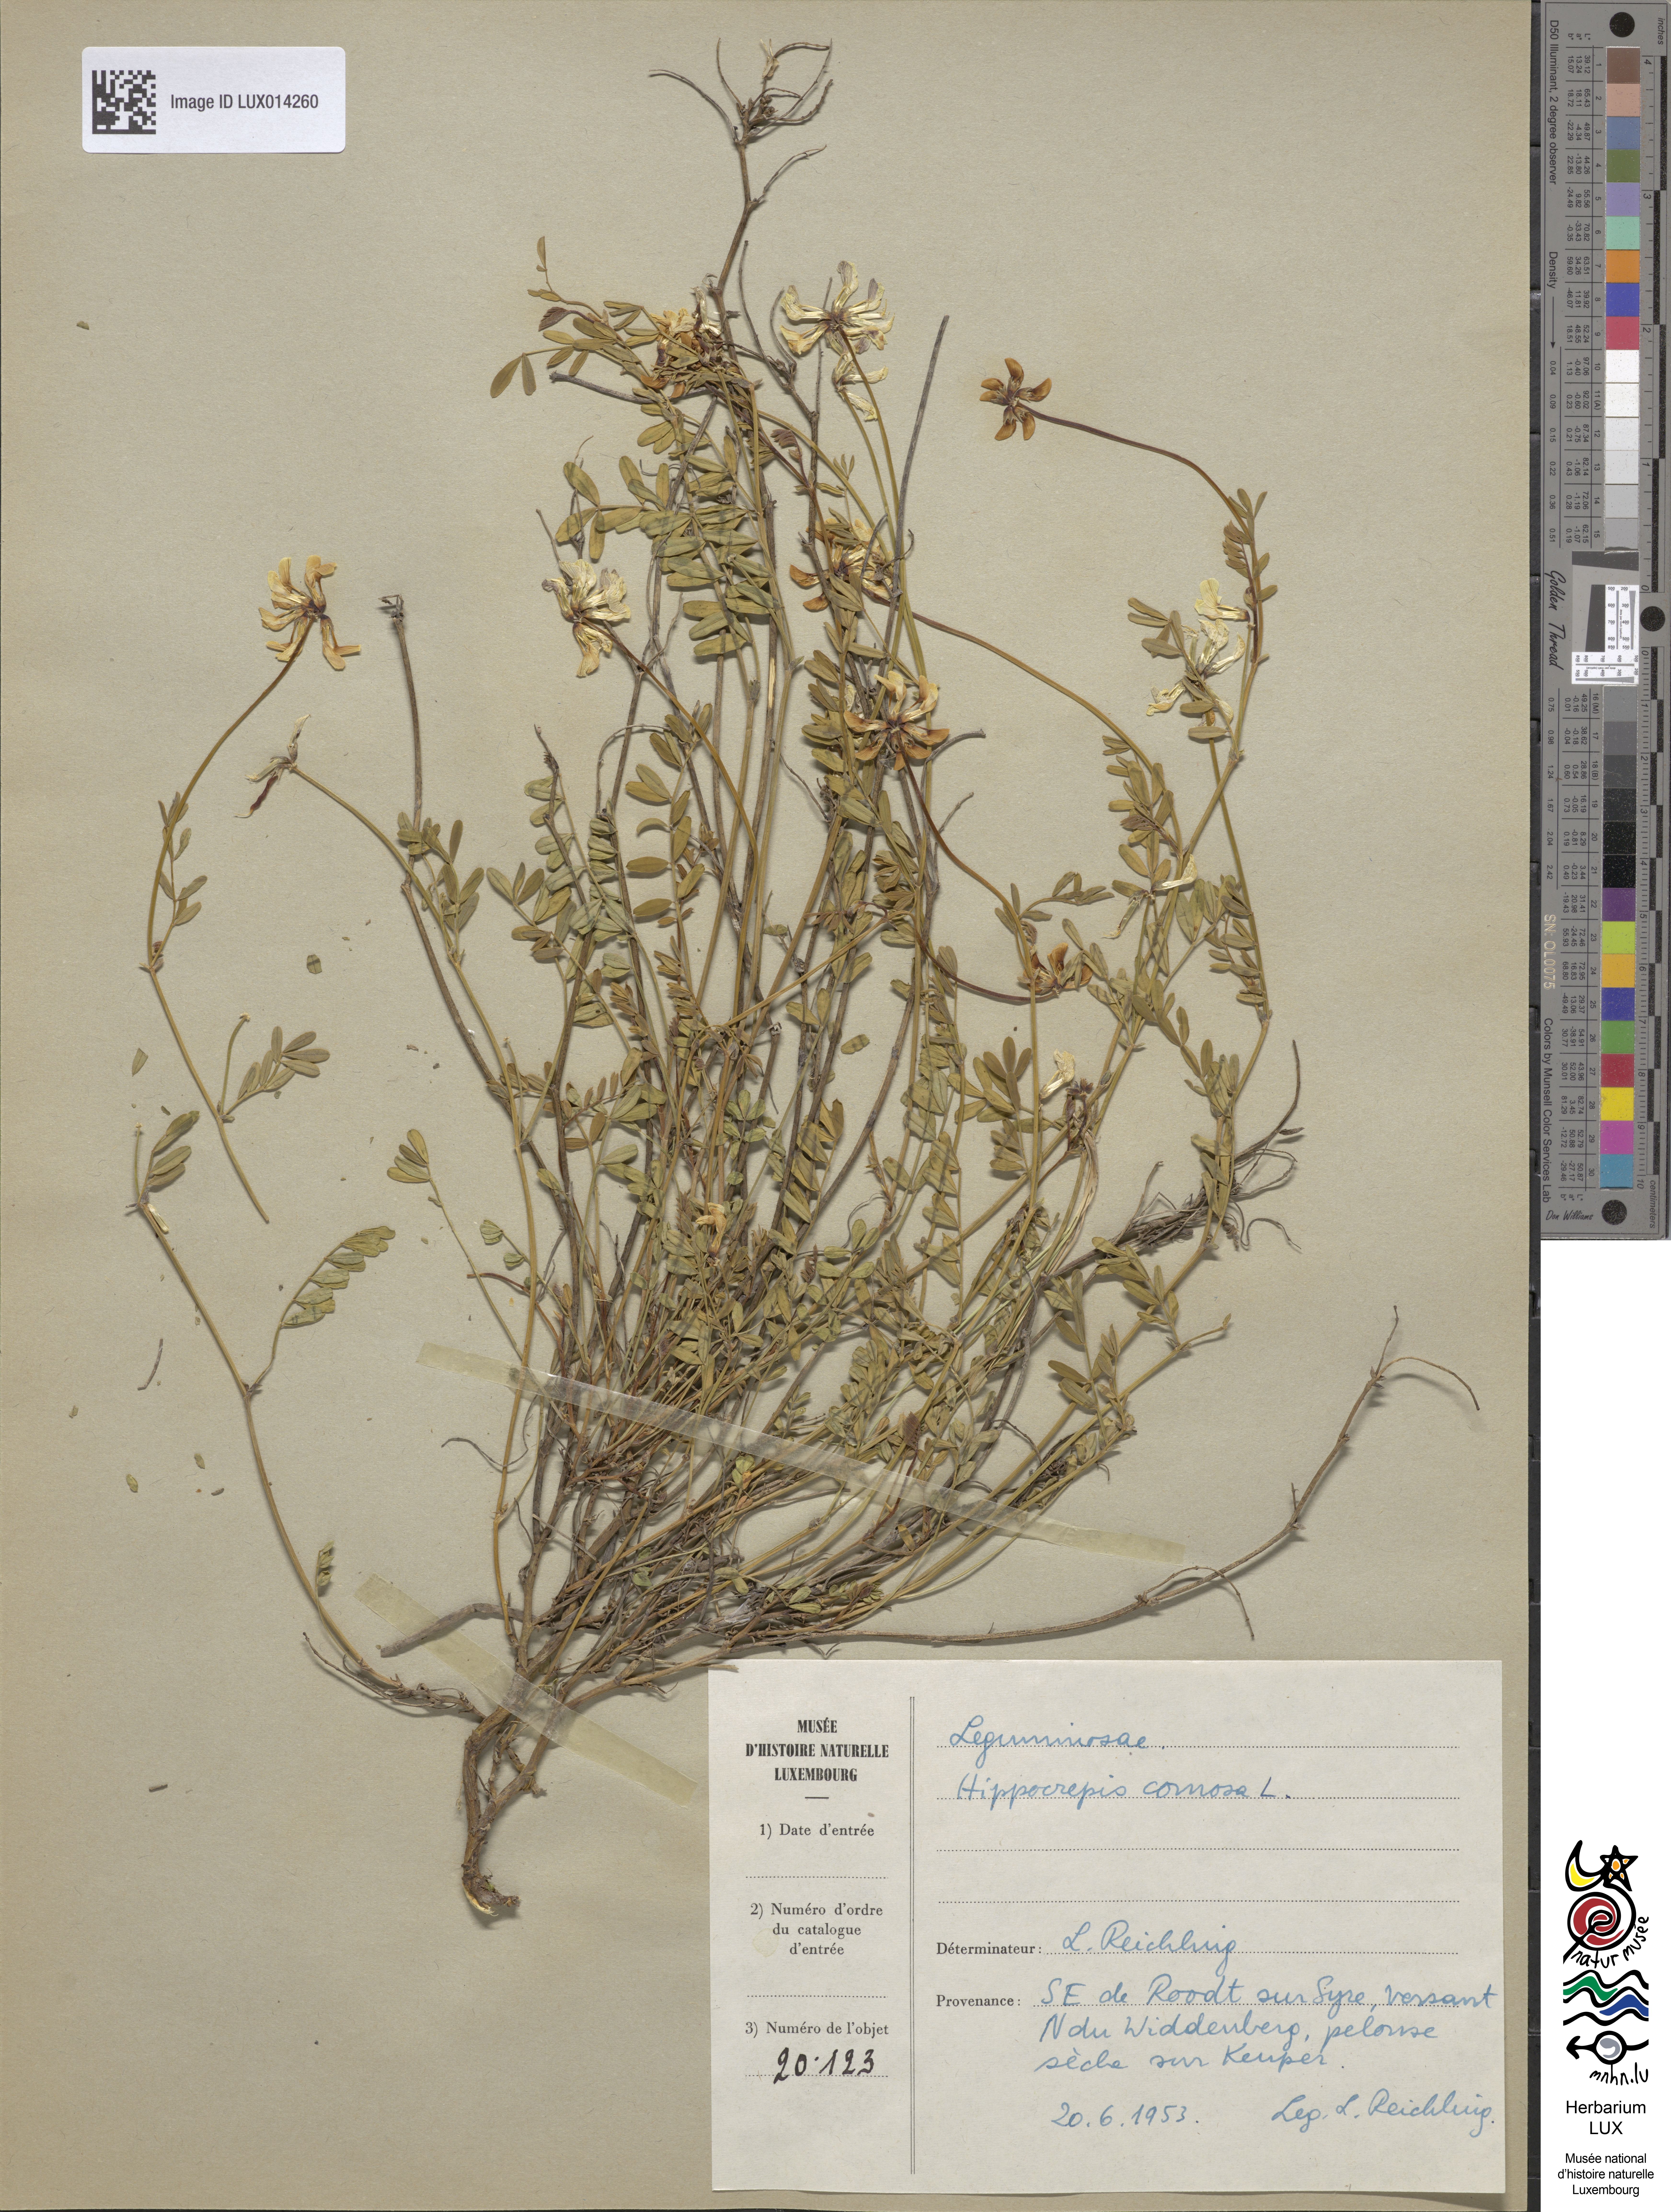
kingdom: Plantae
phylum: Tracheophyta
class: Magnoliopsida
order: Fabales
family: Fabaceae
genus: Hippocrepis
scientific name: Hippocrepis comosa
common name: Horseshoe vetch
